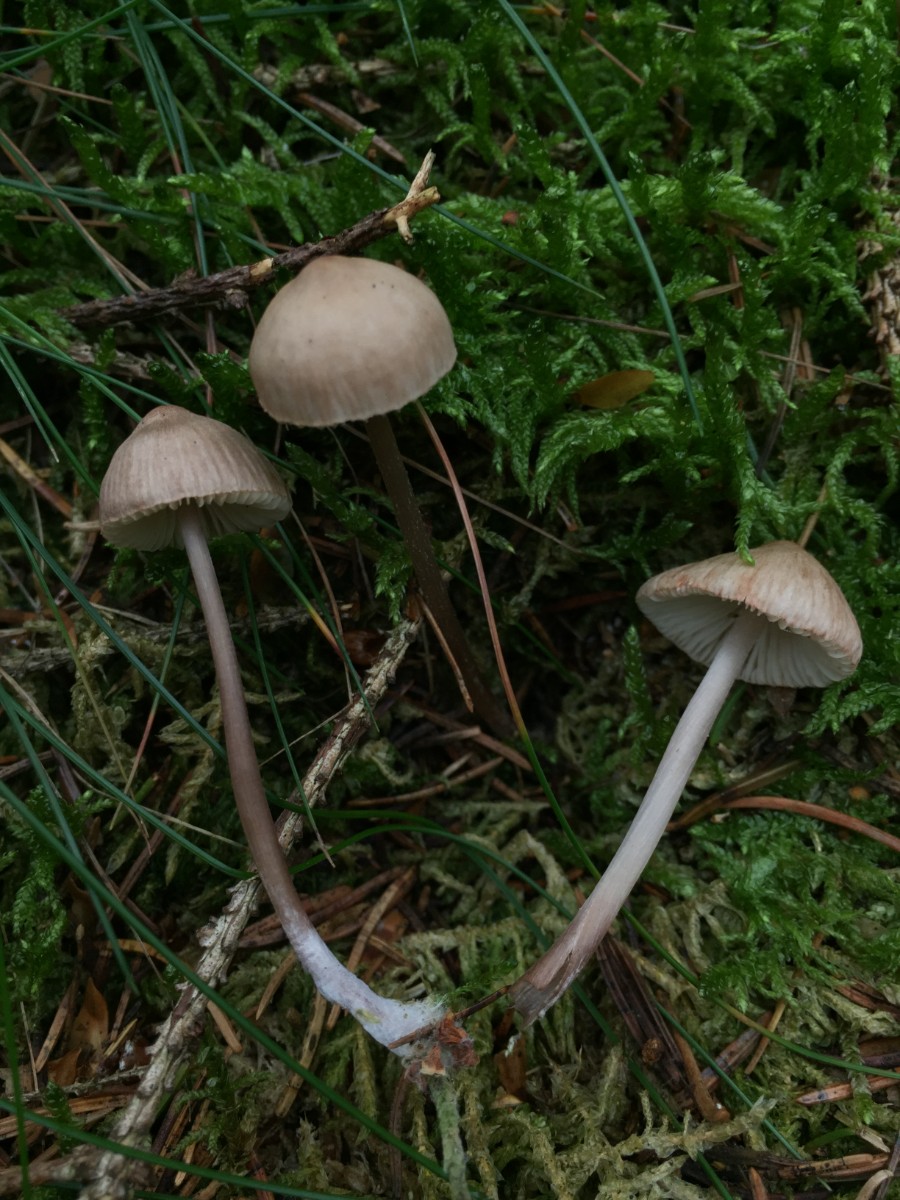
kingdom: Fungi
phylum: Basidiomycota
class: Agaricomycetes
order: Agaricales
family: Mycenaceae
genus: Mycena
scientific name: Mycena zephirus
